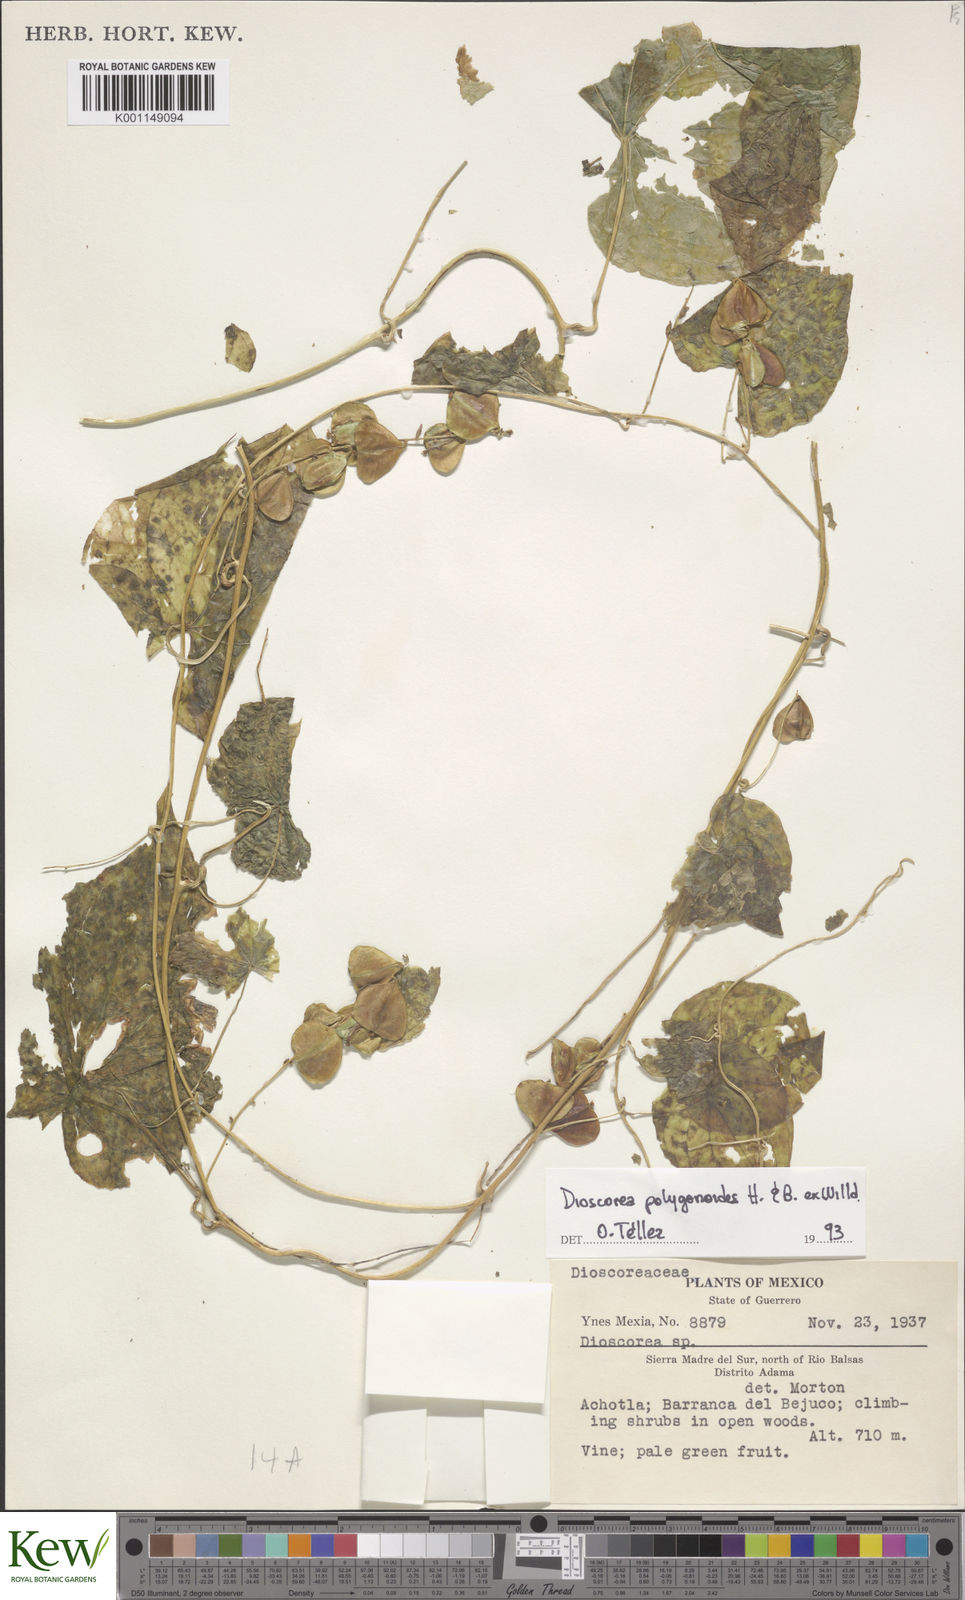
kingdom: Plantae
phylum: Tracheophyta
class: Liliopsida
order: Dioscoreales
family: Dioscoreaceae
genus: Dioscorea
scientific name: Dioscorea
